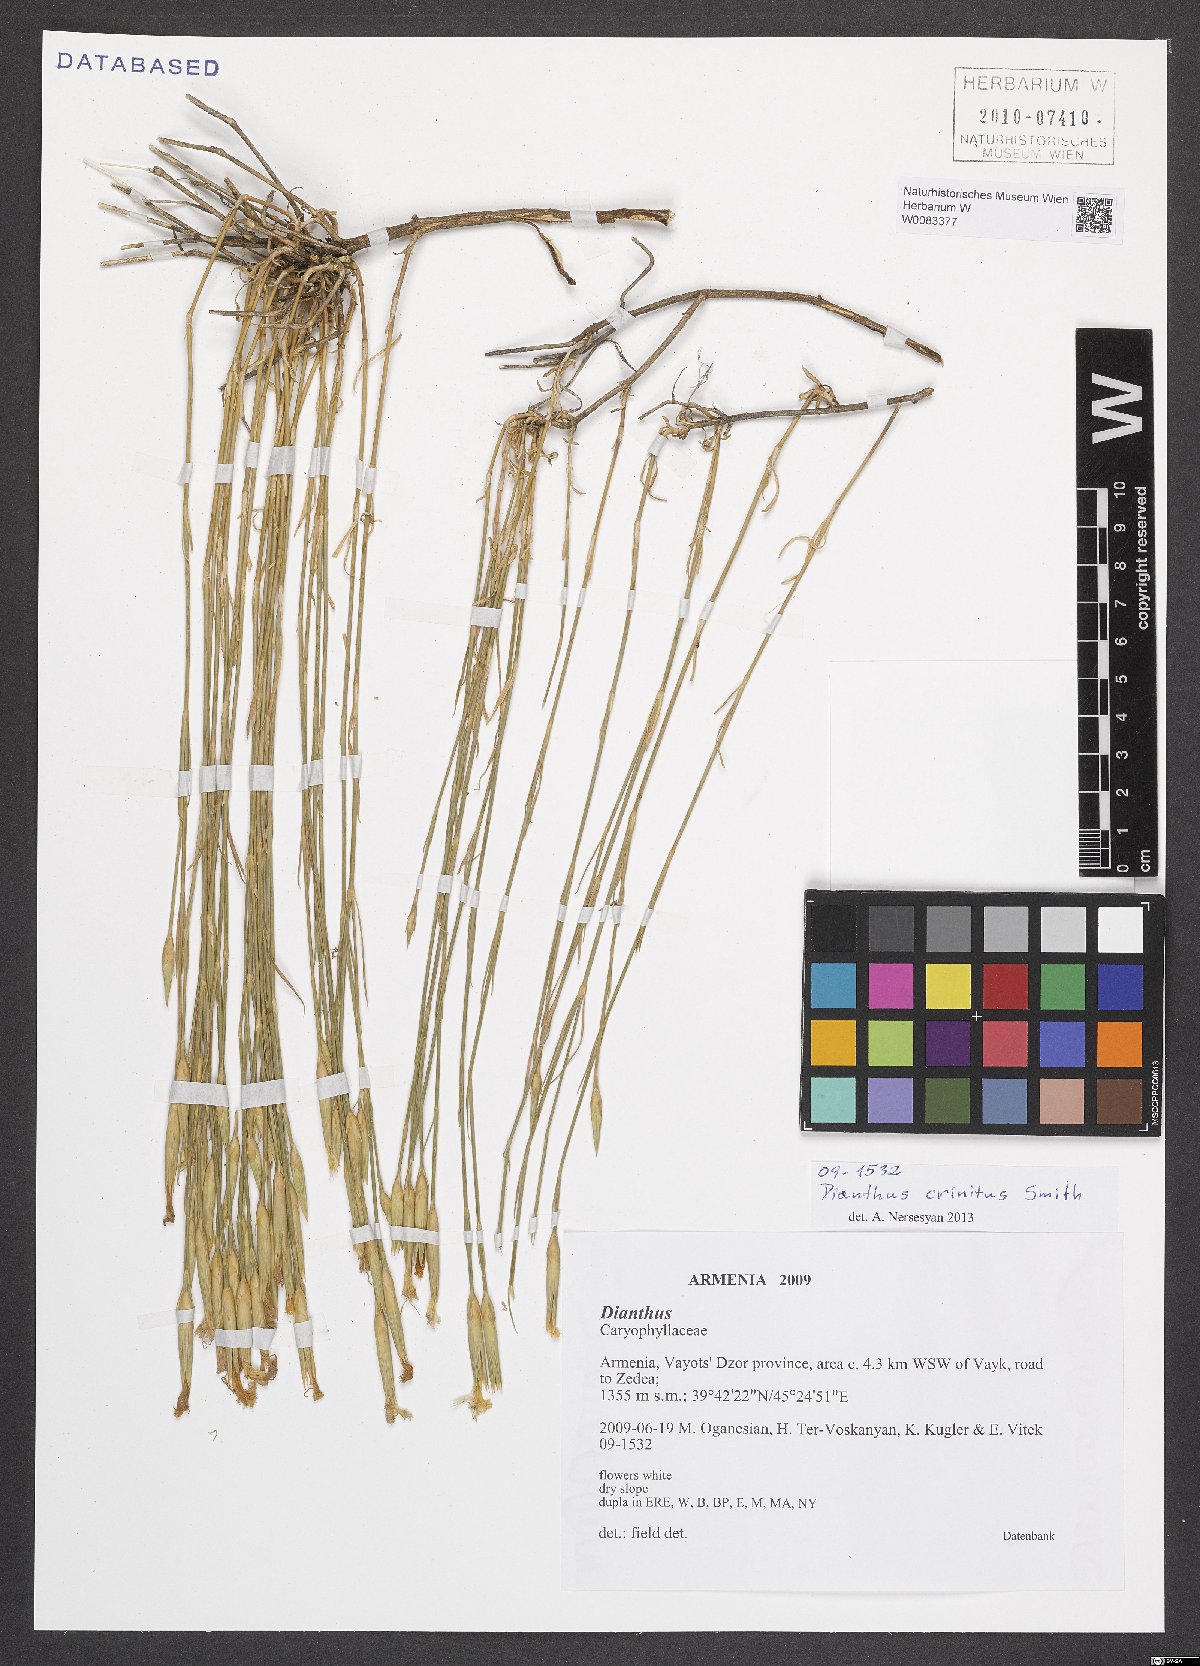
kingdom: Plantae
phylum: Tracheophyta
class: Magnoliopsida
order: Caryophyllales
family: Caryophyllaceae
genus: Dianthus
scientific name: Dianthus crinitus
